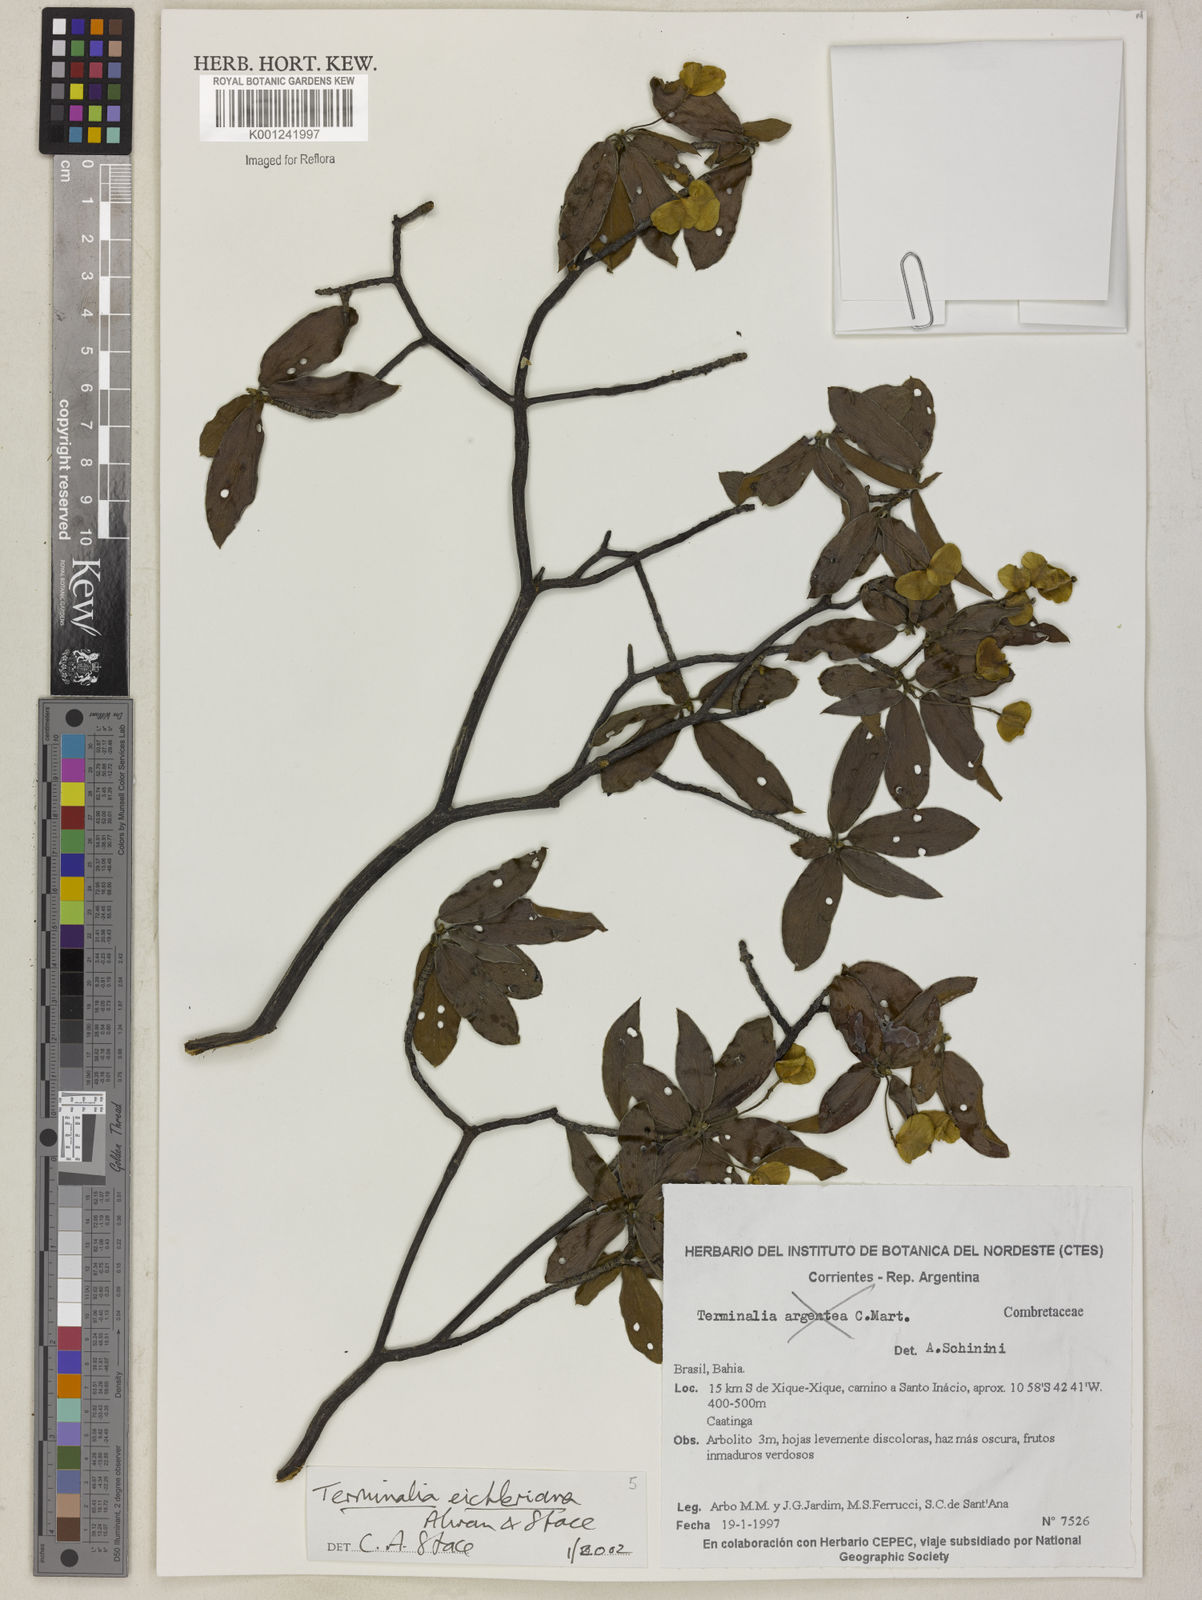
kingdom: Plantae
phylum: Tracheophyta
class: Magnoliopsida
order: Myrtales
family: Combretaceae
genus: Terminalia
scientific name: Terminalia eichleriana
